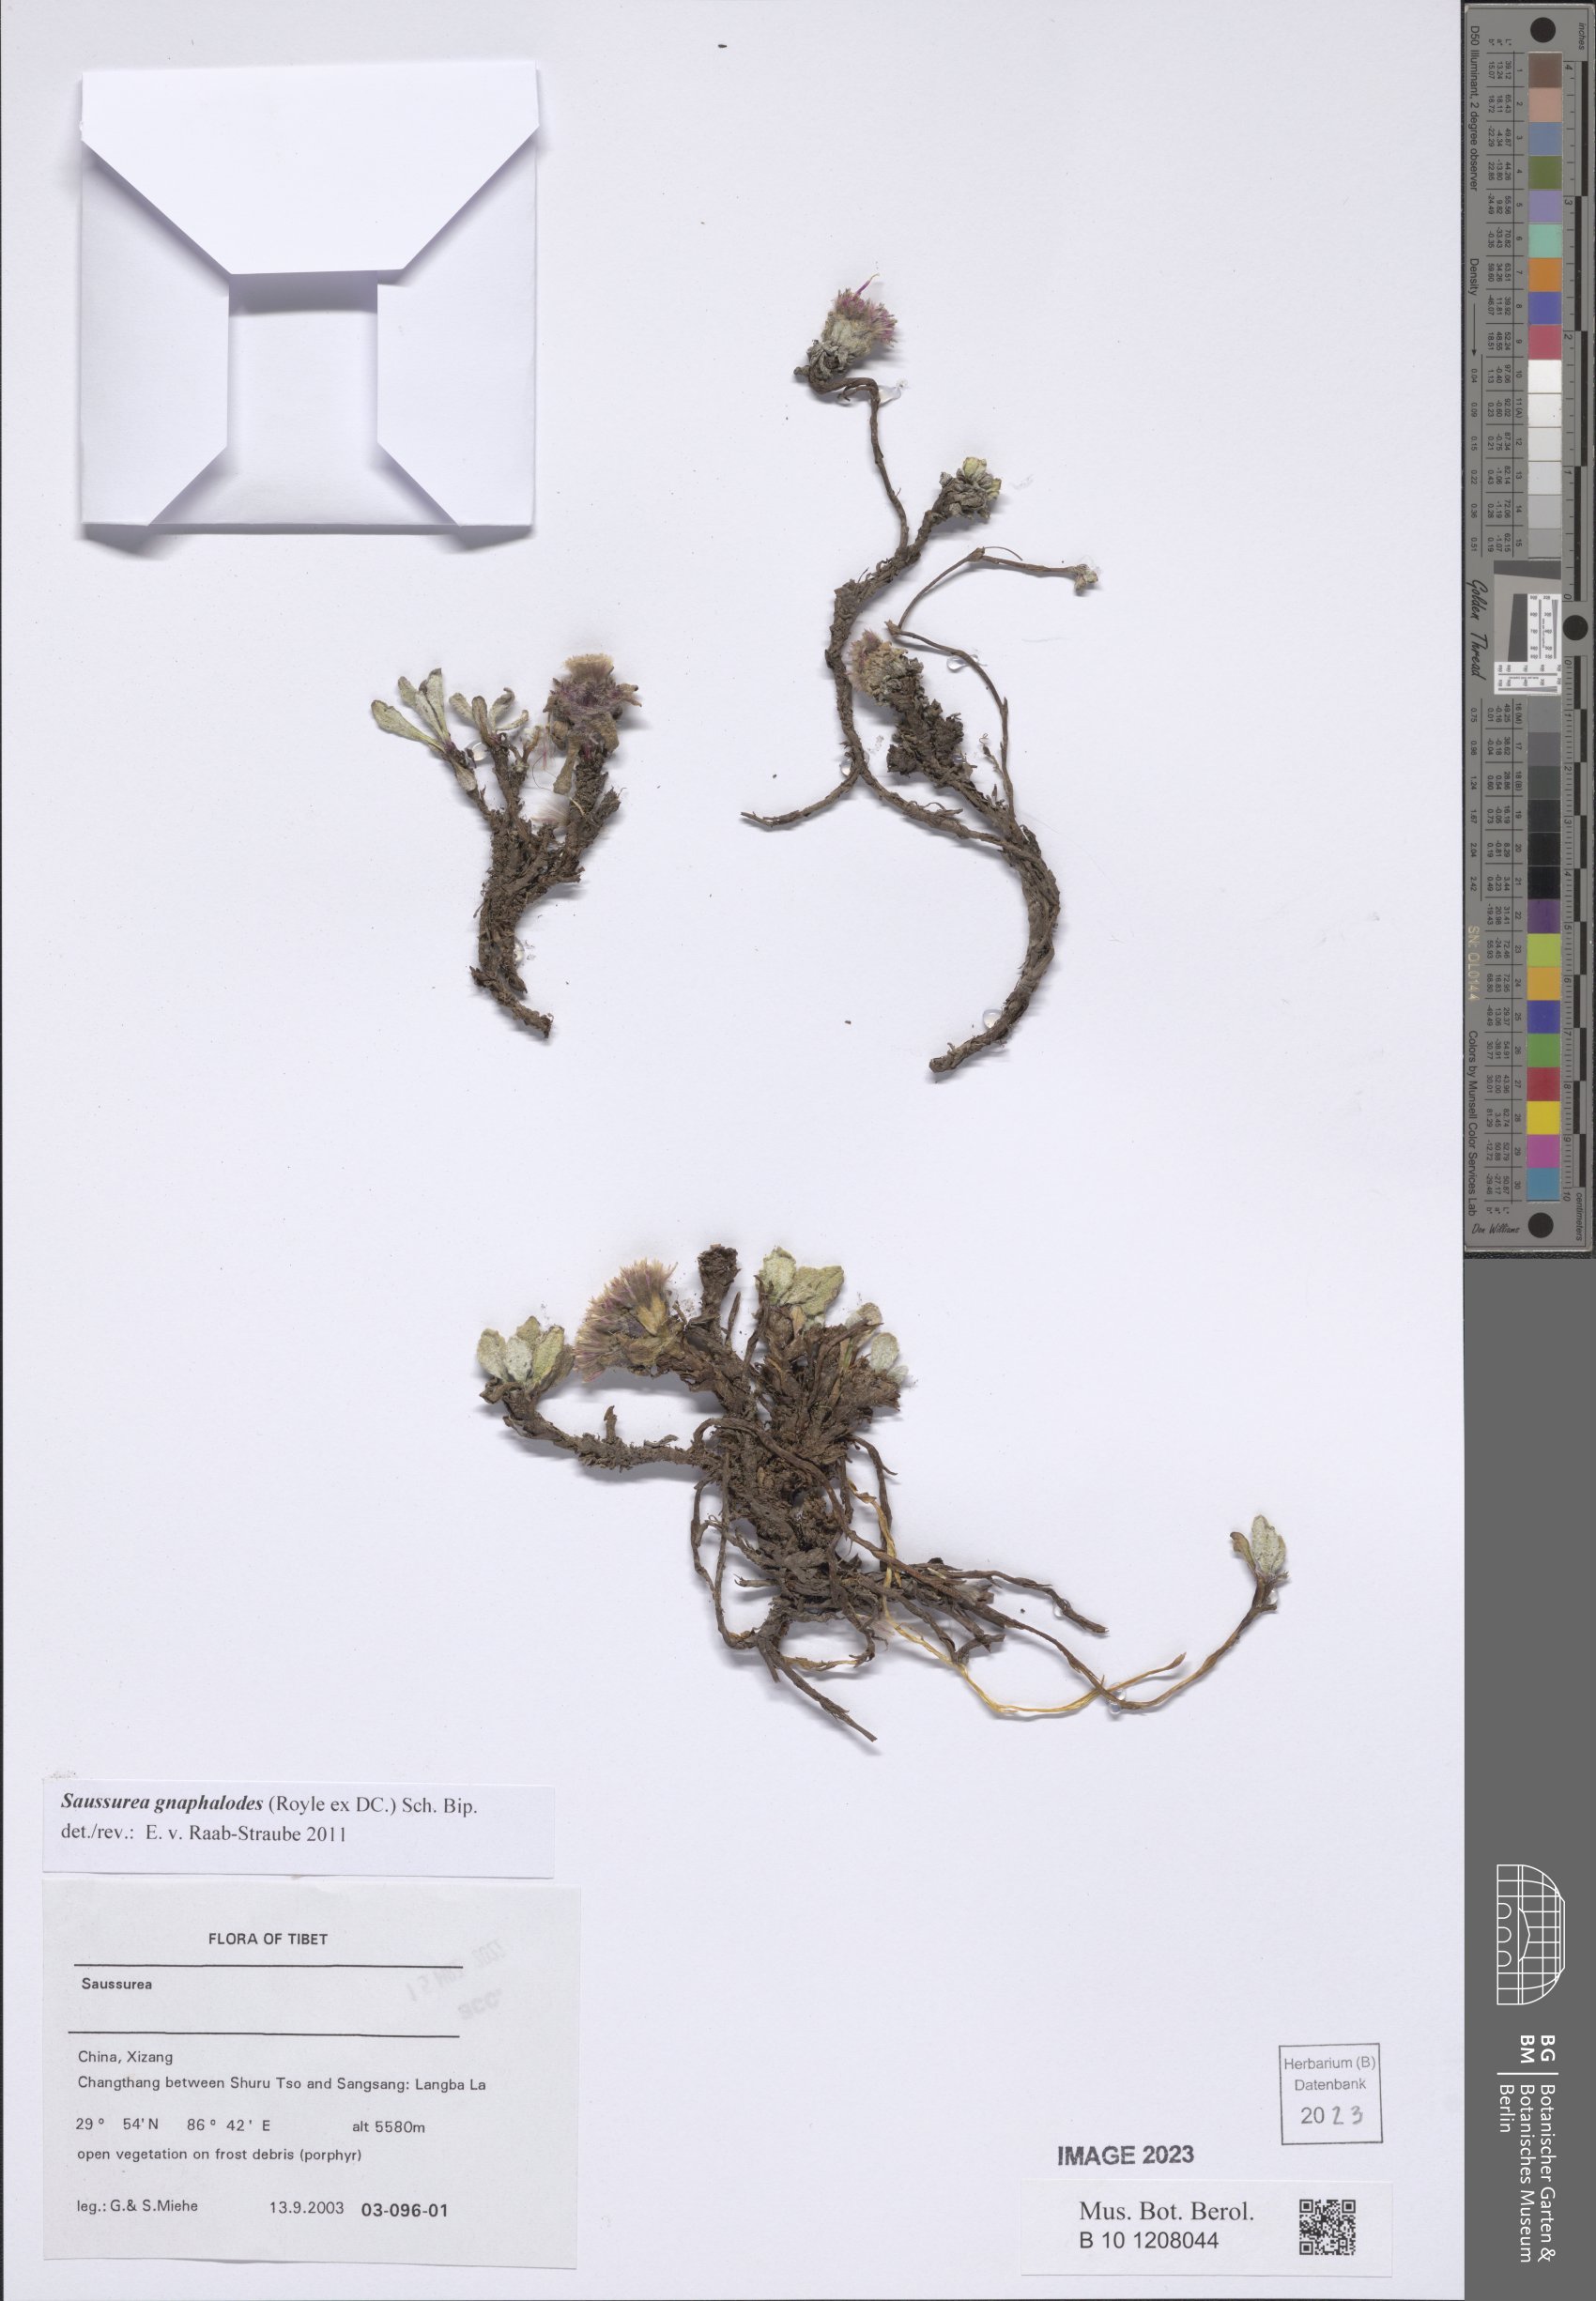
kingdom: Plantae
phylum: Tracheophyta
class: Magnoliopsida
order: Asterales
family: Asteraceae
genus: Saussurea
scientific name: Saussurea gnaphalodes
